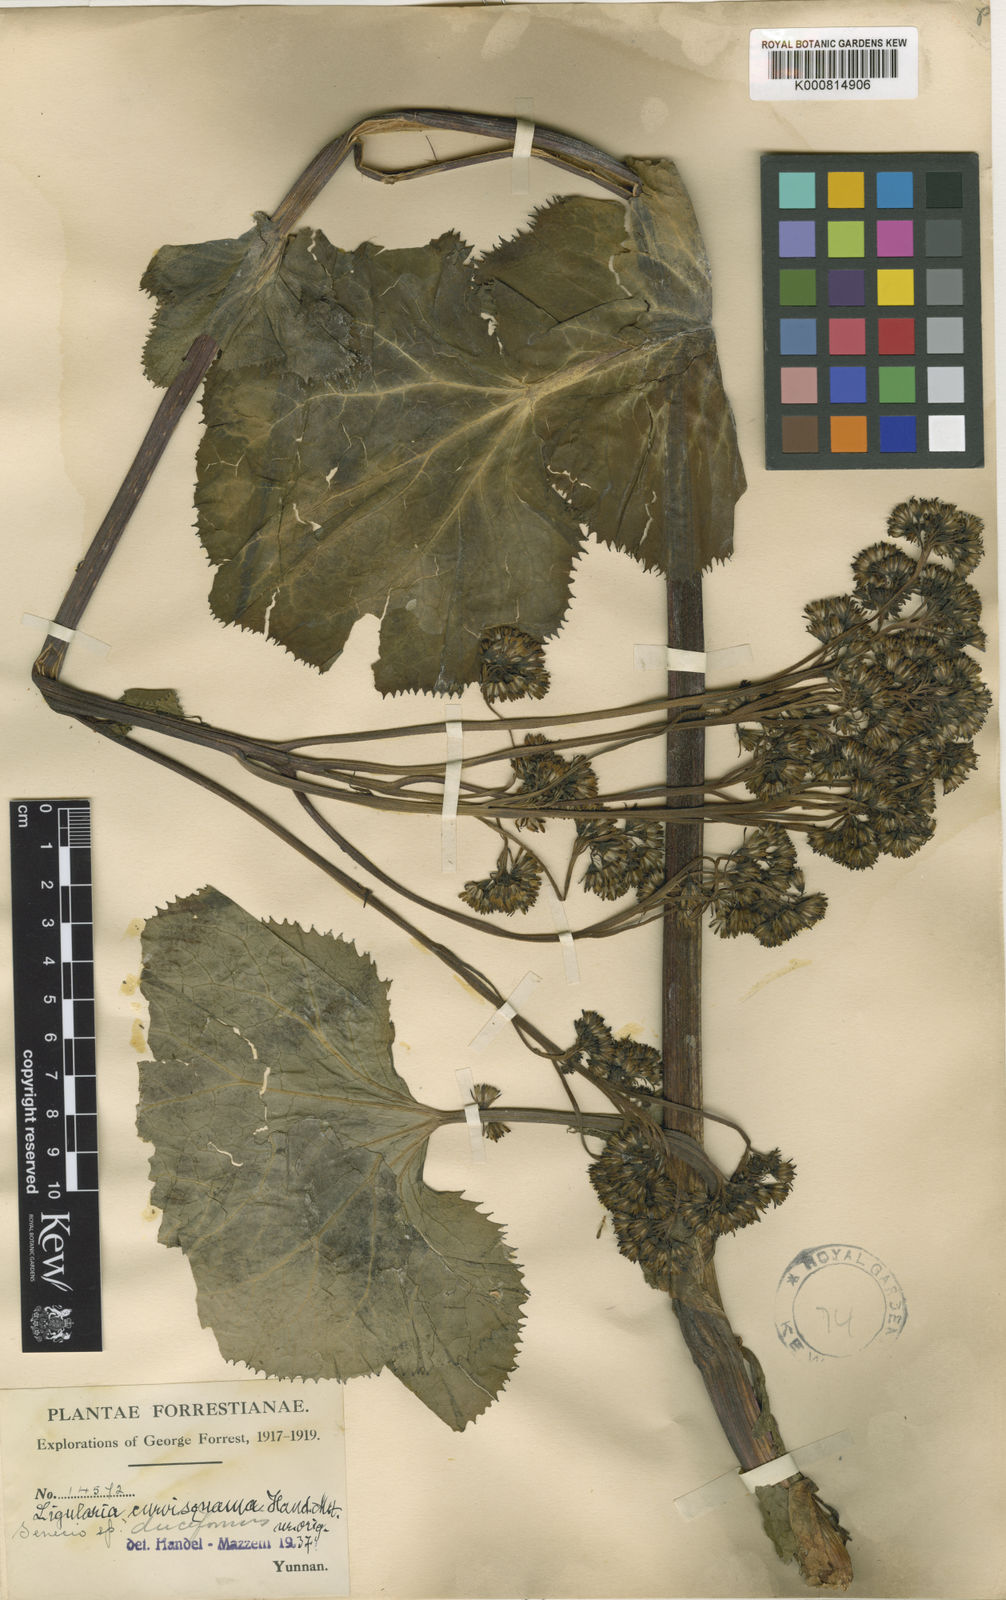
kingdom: Plantae
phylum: Tracheophyta
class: Magnoliopsida
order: Asterales
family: Asteraceae
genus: Ligularia
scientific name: Ligularia curvisquama
